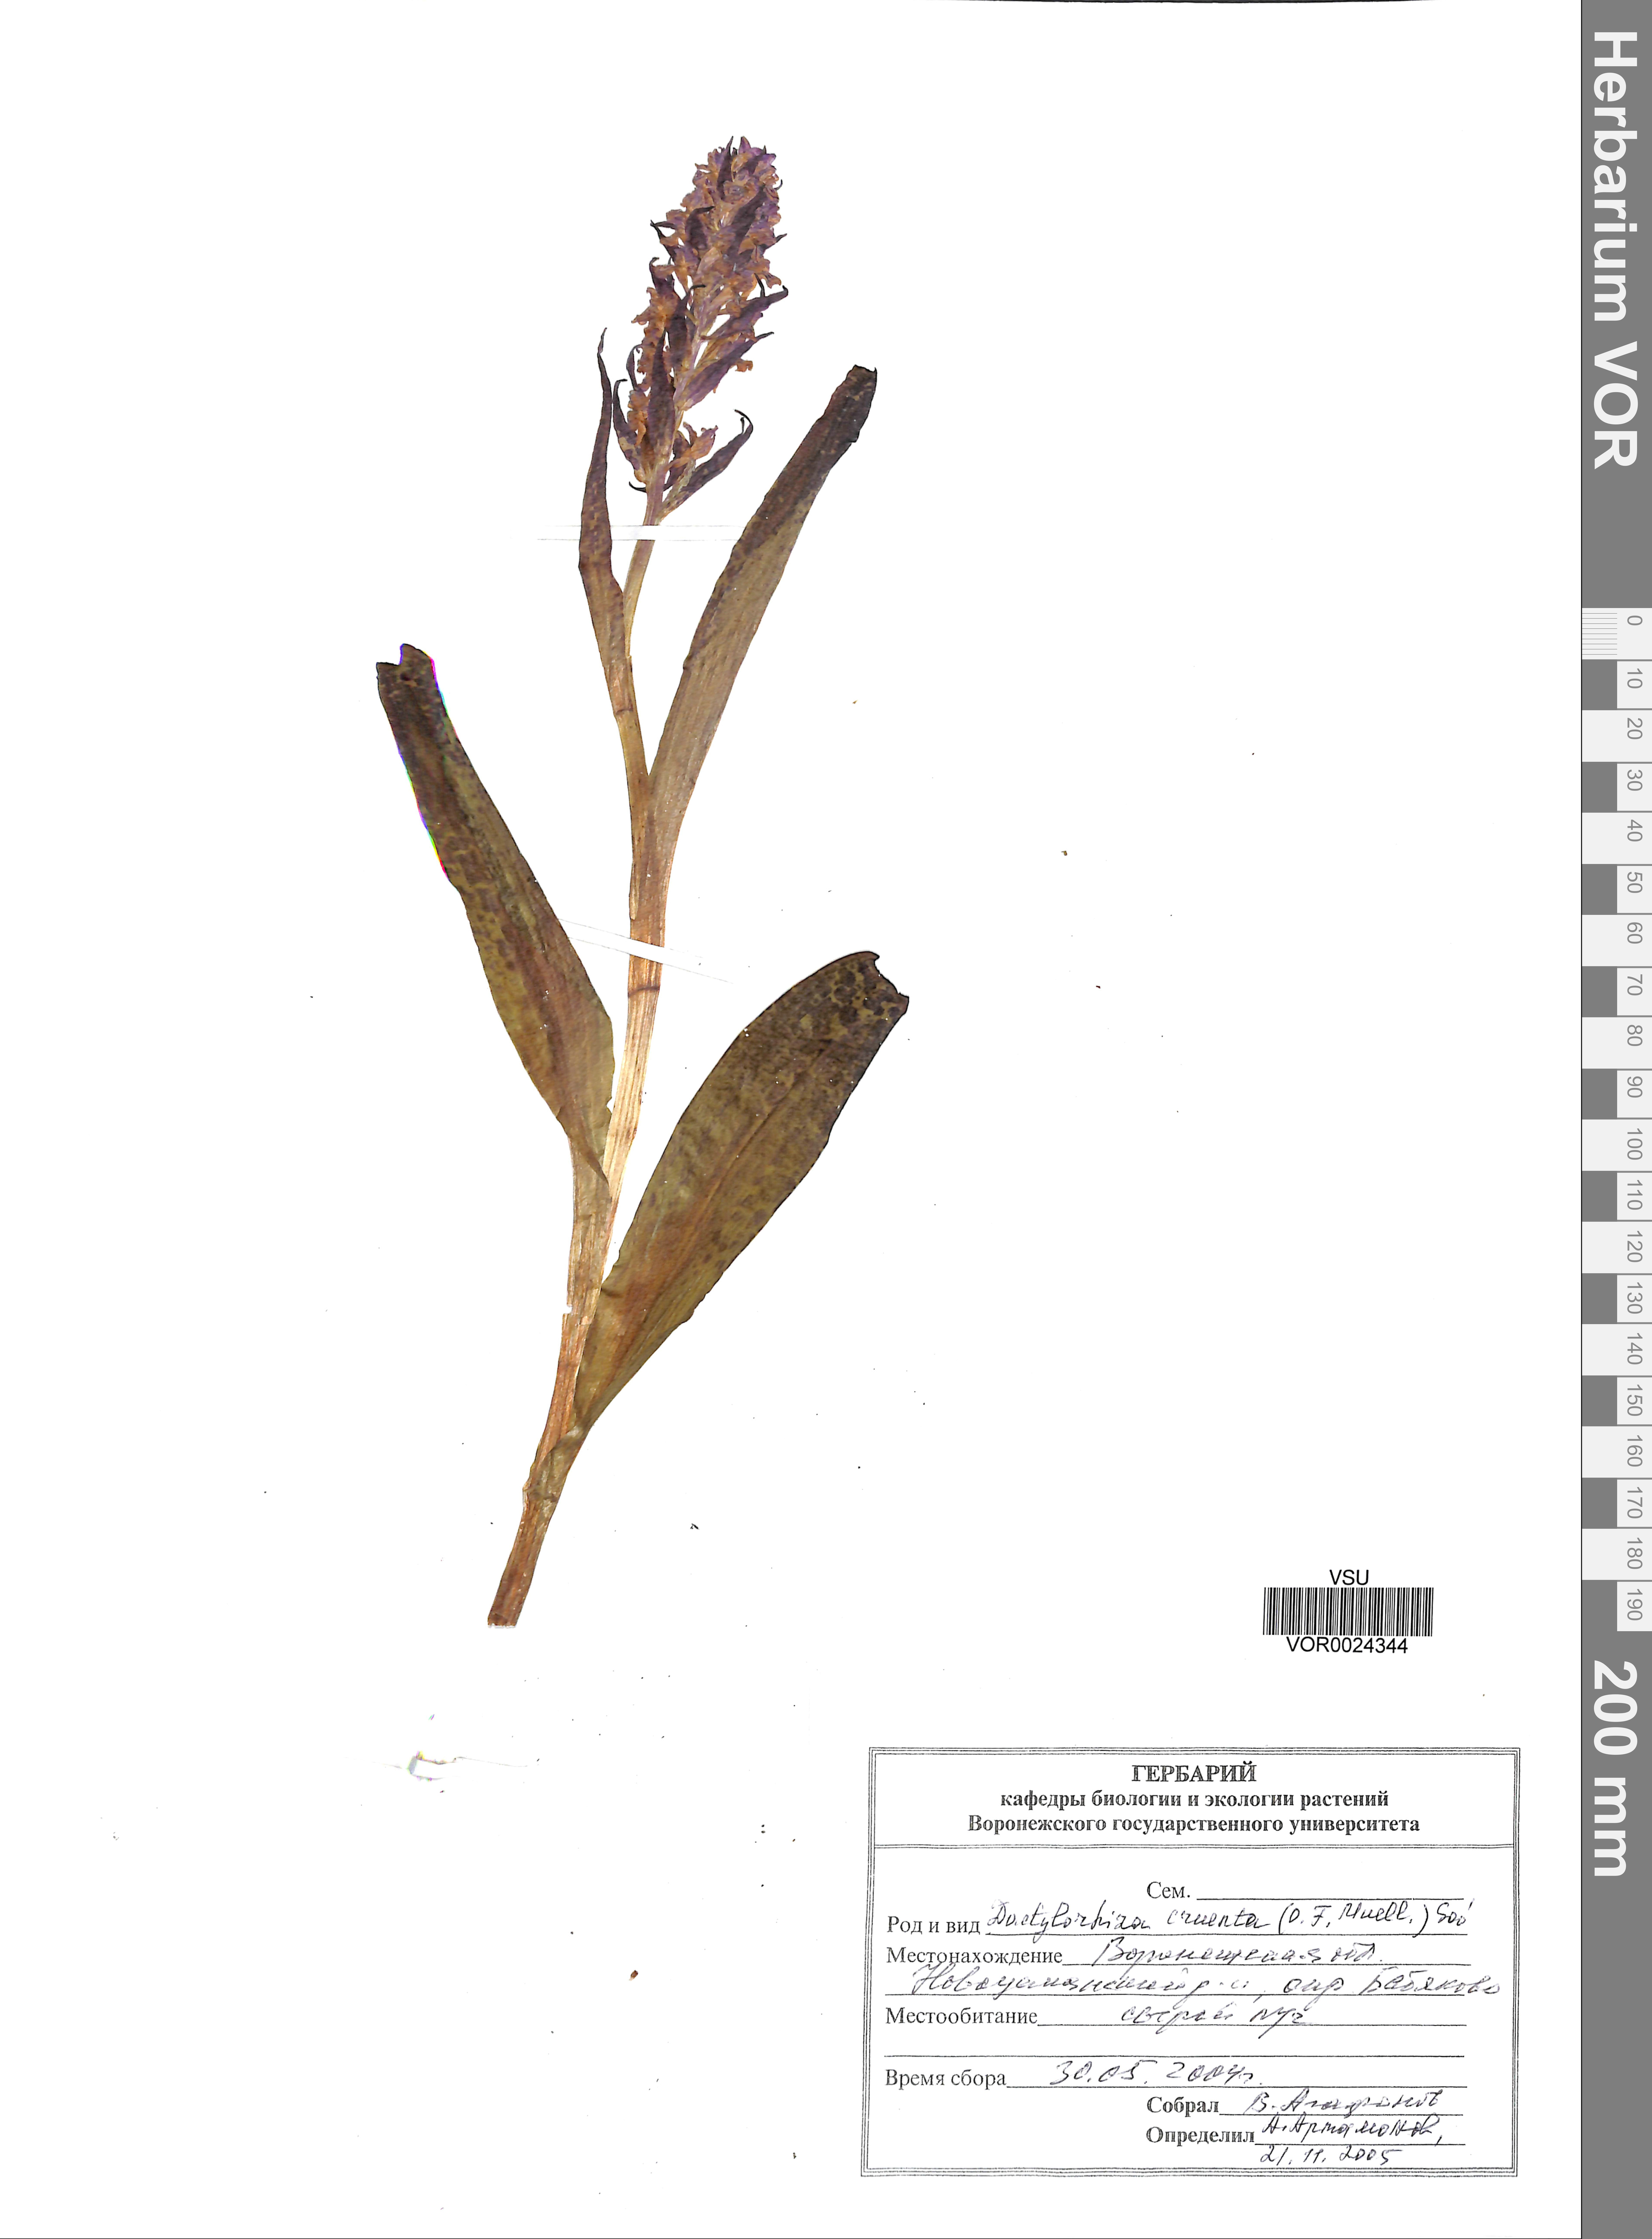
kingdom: Plantae
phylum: Tracheophyta
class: Liliopsida
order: Asparagales
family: Orchidaceae
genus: Dactylorhiza
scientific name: Dactylorhiza incarnata
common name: Early marsh-orchid
